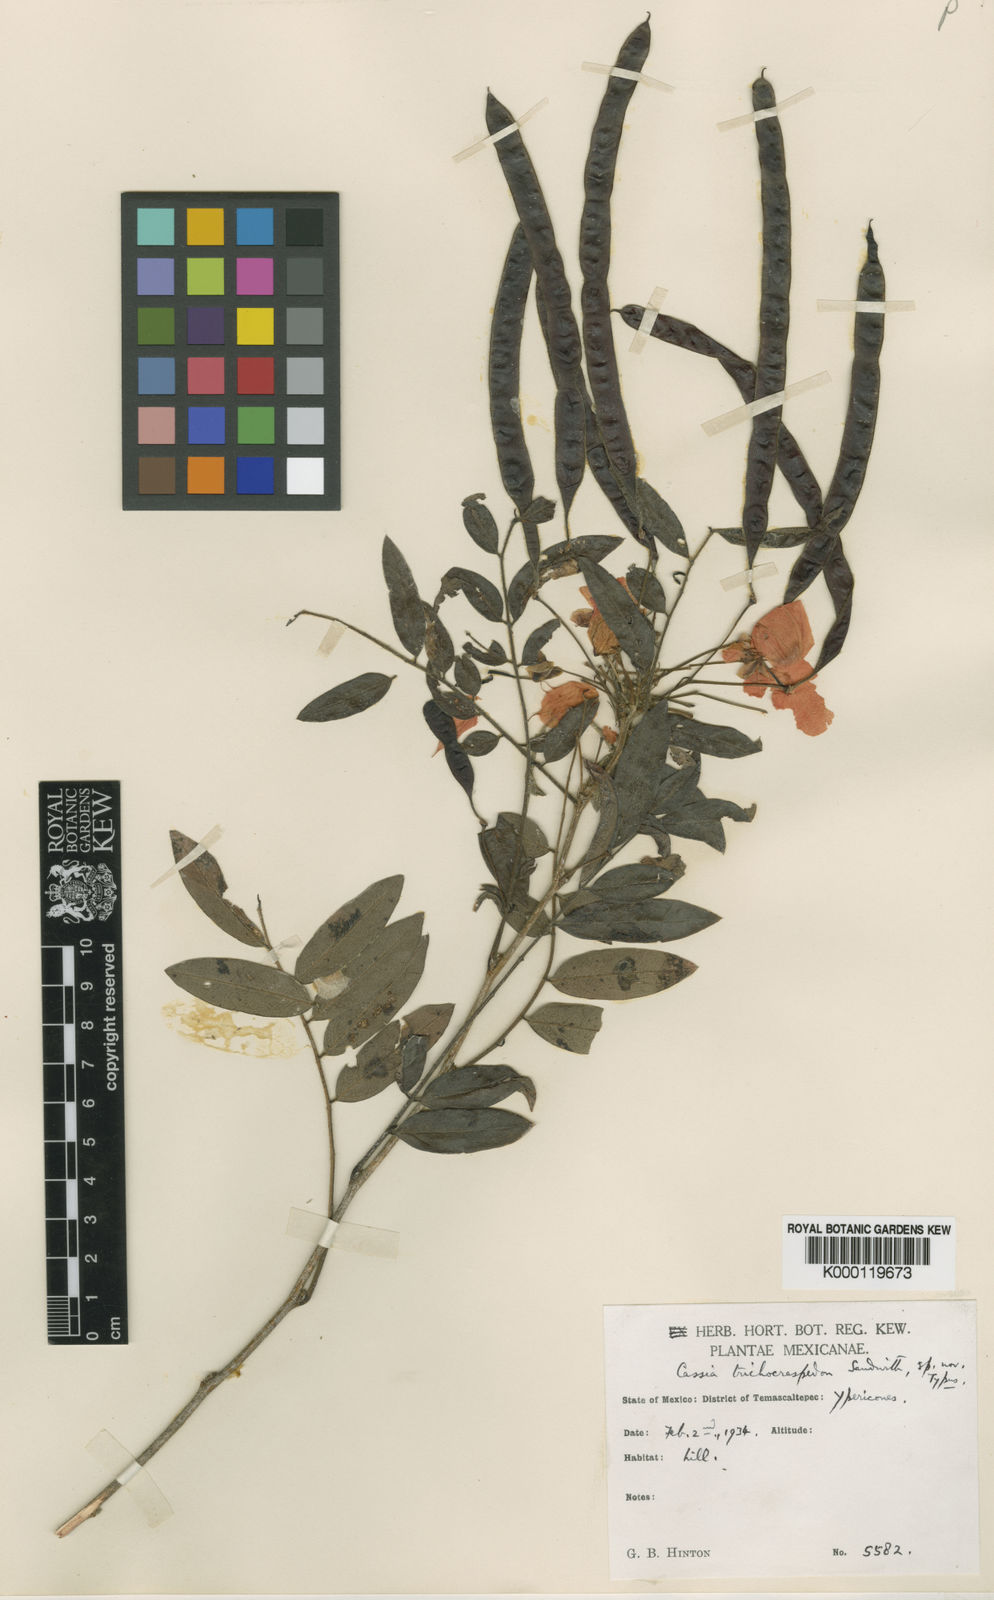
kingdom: Plantae
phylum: Tracheophyta
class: Magnoliopsida
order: Fabales
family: Fabaceae
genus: Senna
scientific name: Senna pallida
